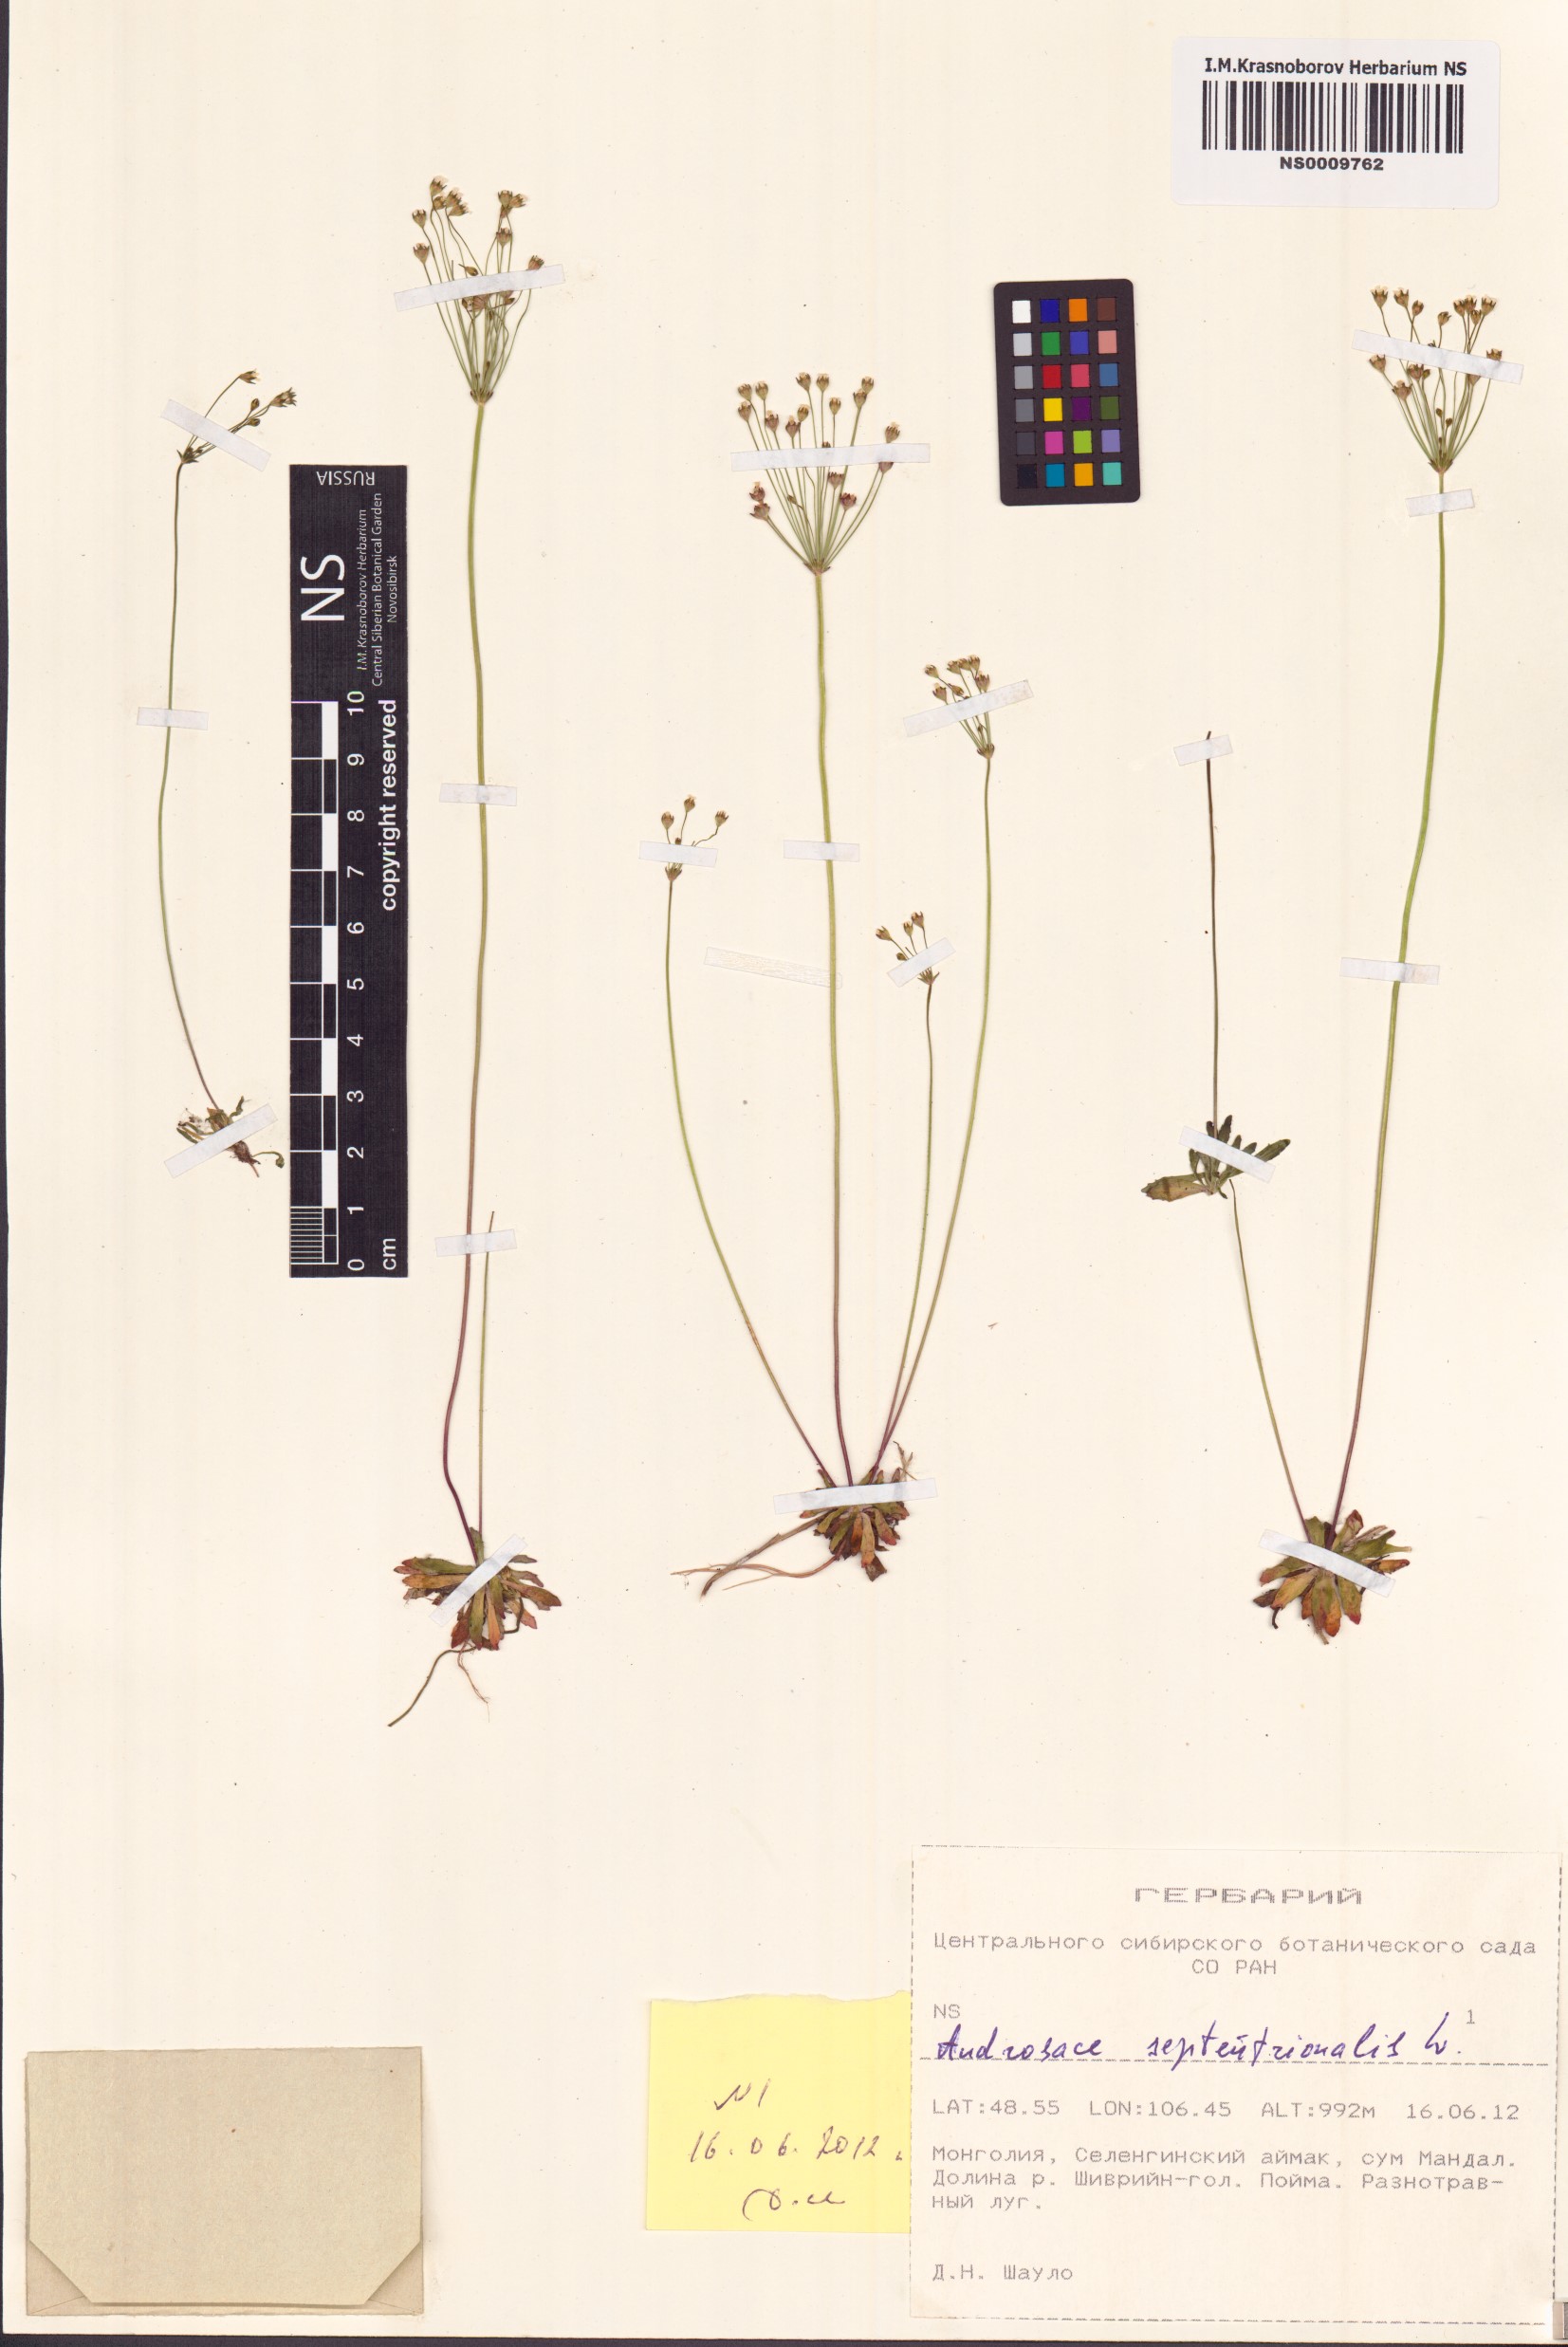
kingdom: Plantae
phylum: Tracheophyta
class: Magnoliopsida
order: Ericales
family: Primulaceae
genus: Androsace
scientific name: Androsace septentrionalis
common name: Hairy northern fairy-candelabra
